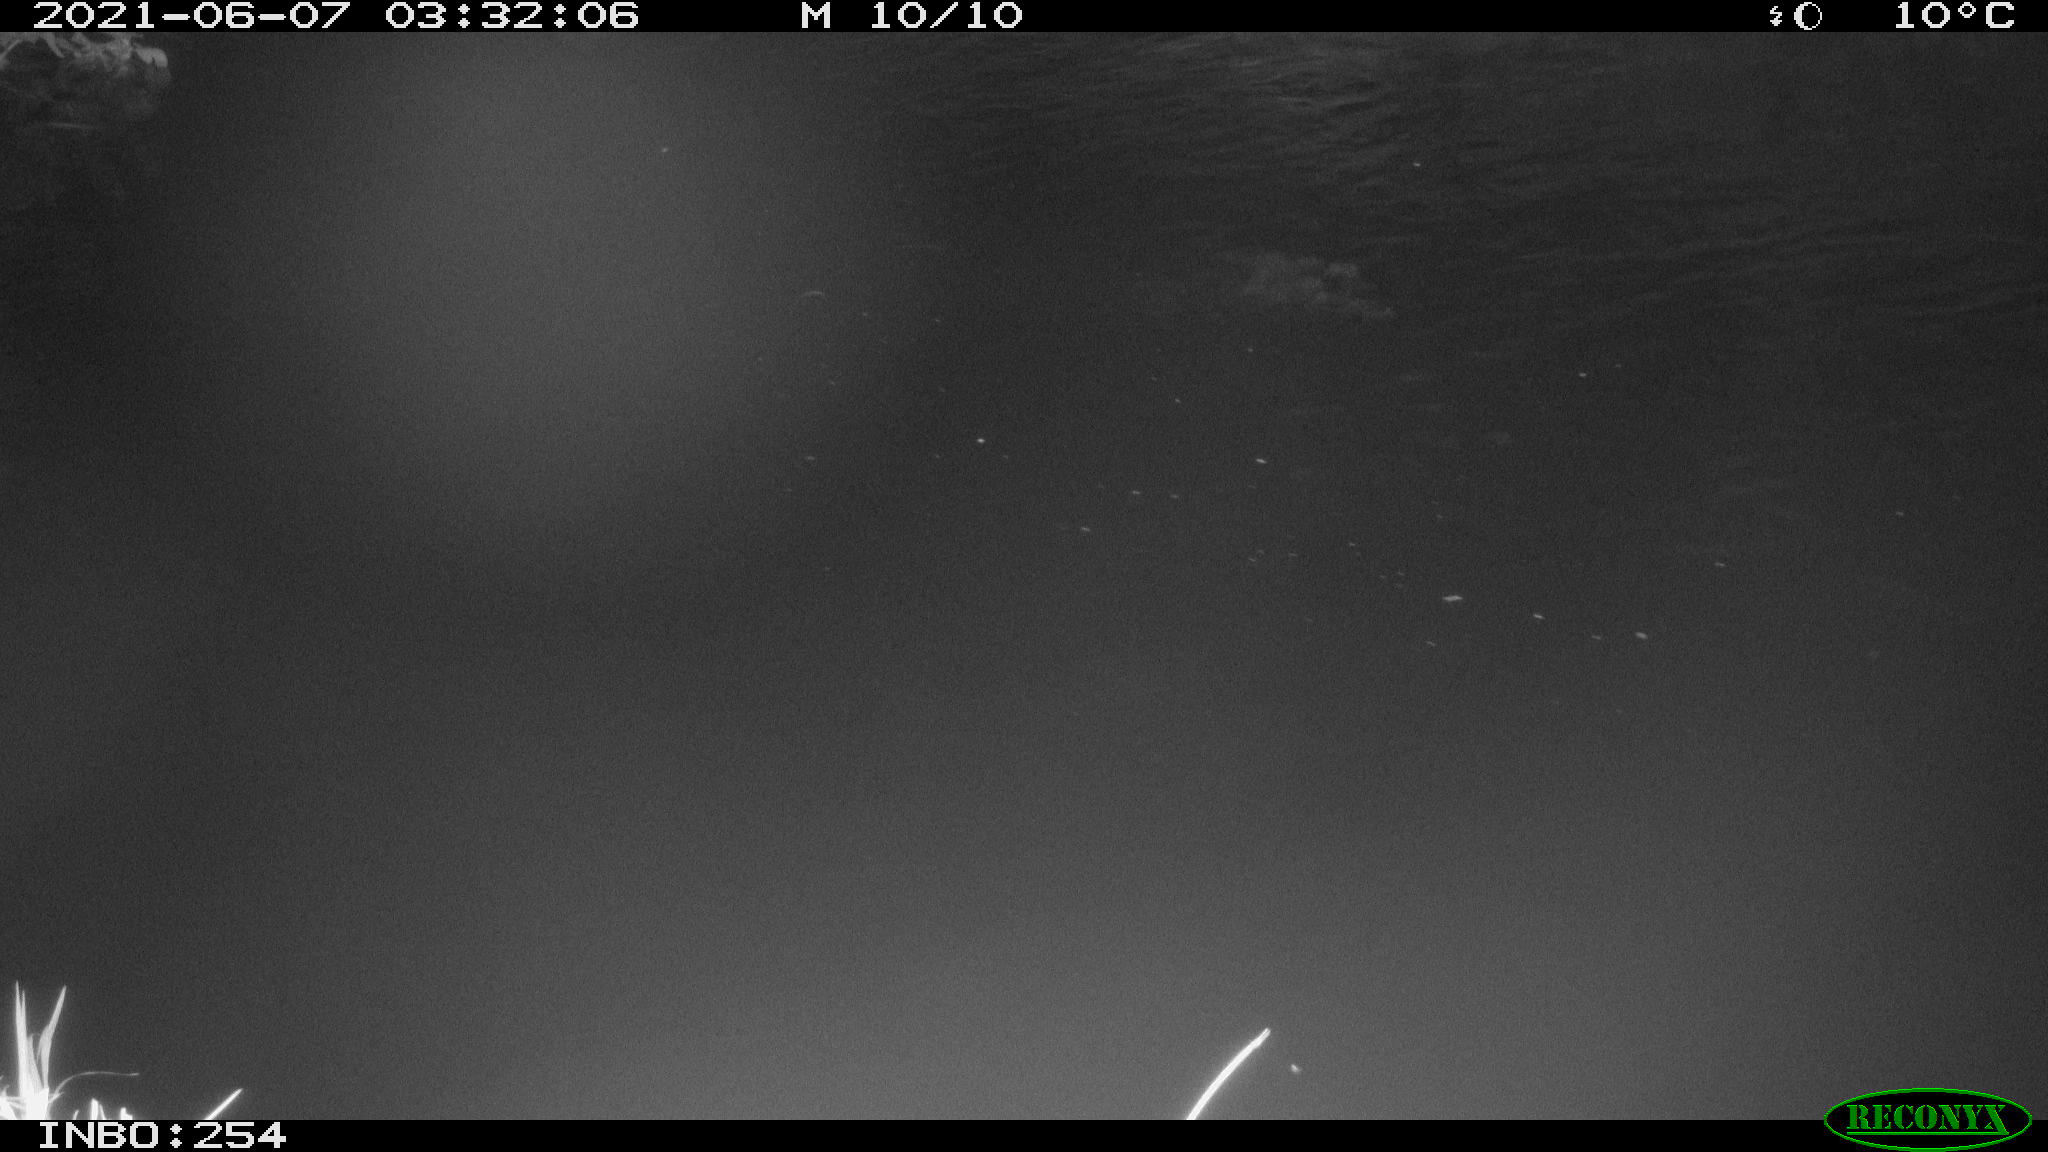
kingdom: Animalia
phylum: Chordata
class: Aves
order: Anseriformes
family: Anatidae
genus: Anas
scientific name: Anas platyrhynchos
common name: Mallard
